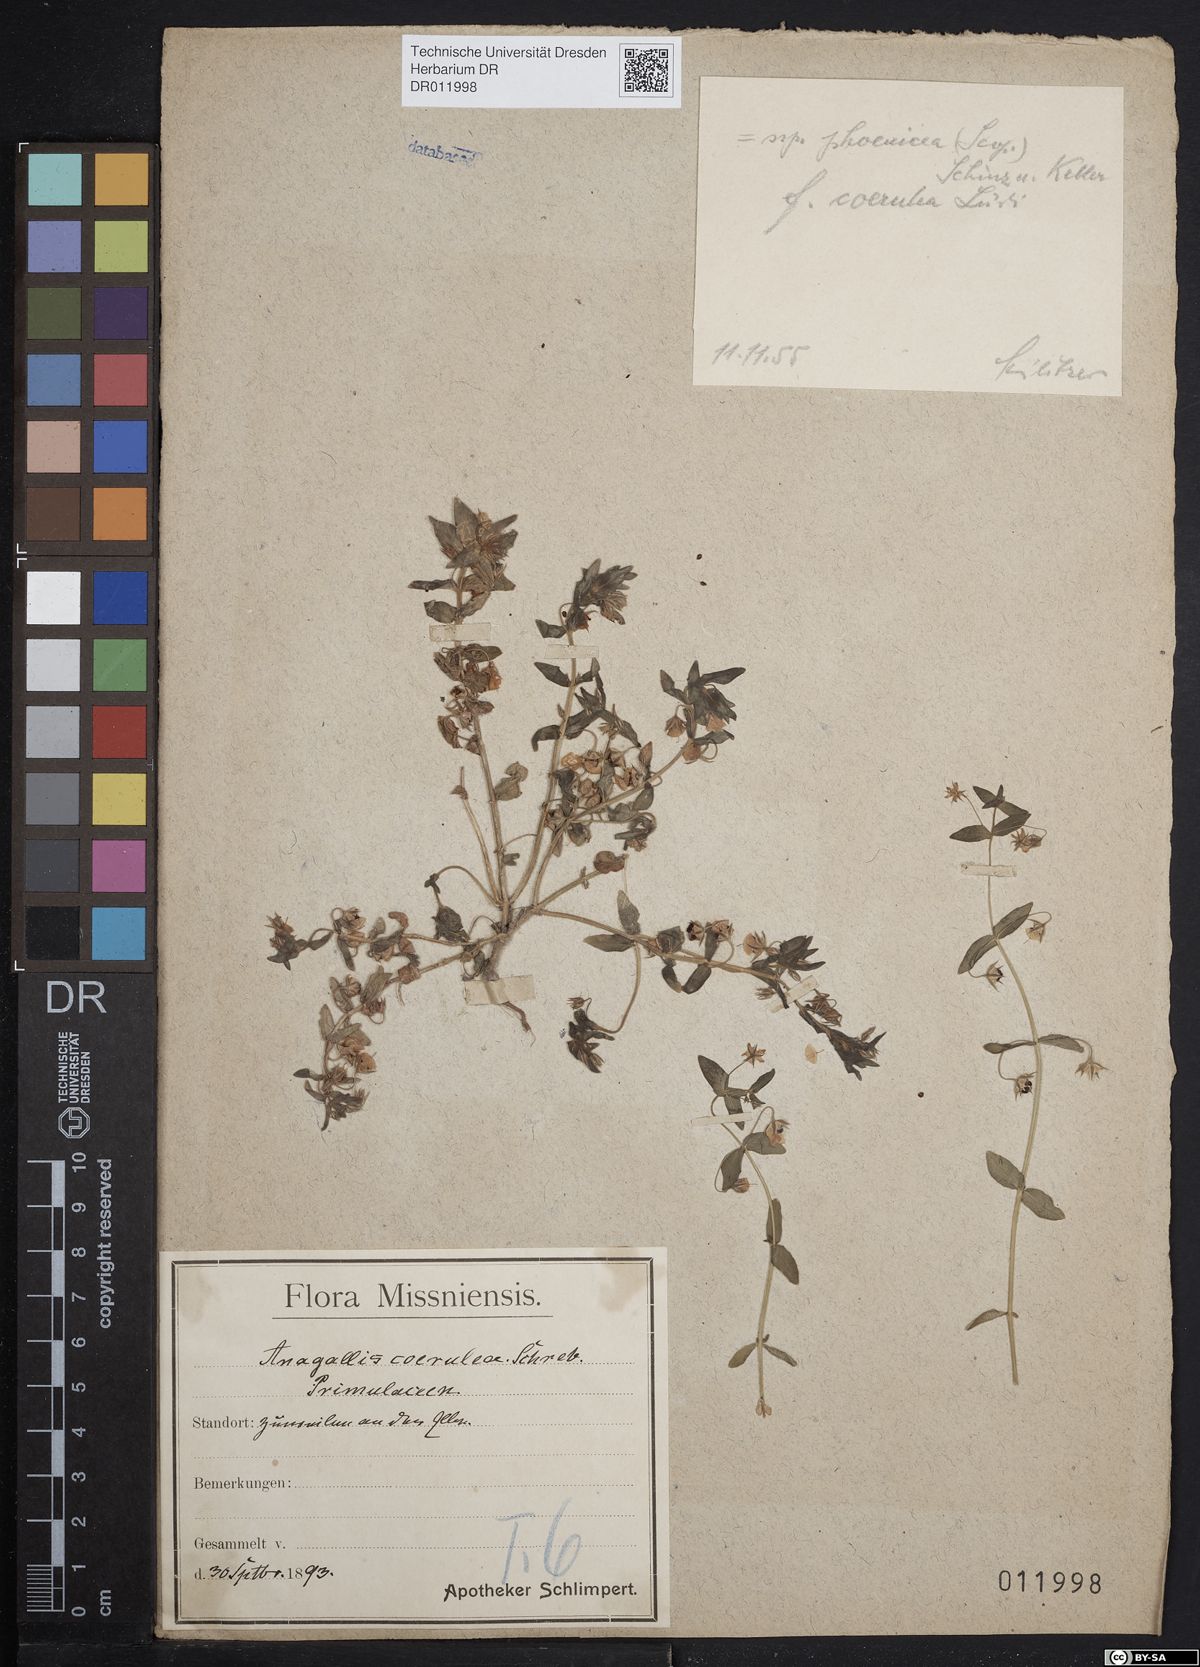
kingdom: Plantae
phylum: Tracheophyta
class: Magnoliopsida
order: Ericales
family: Primulaceae
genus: Lysimachia
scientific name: Lysimachia arvensis
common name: Scarlet pimpernel
